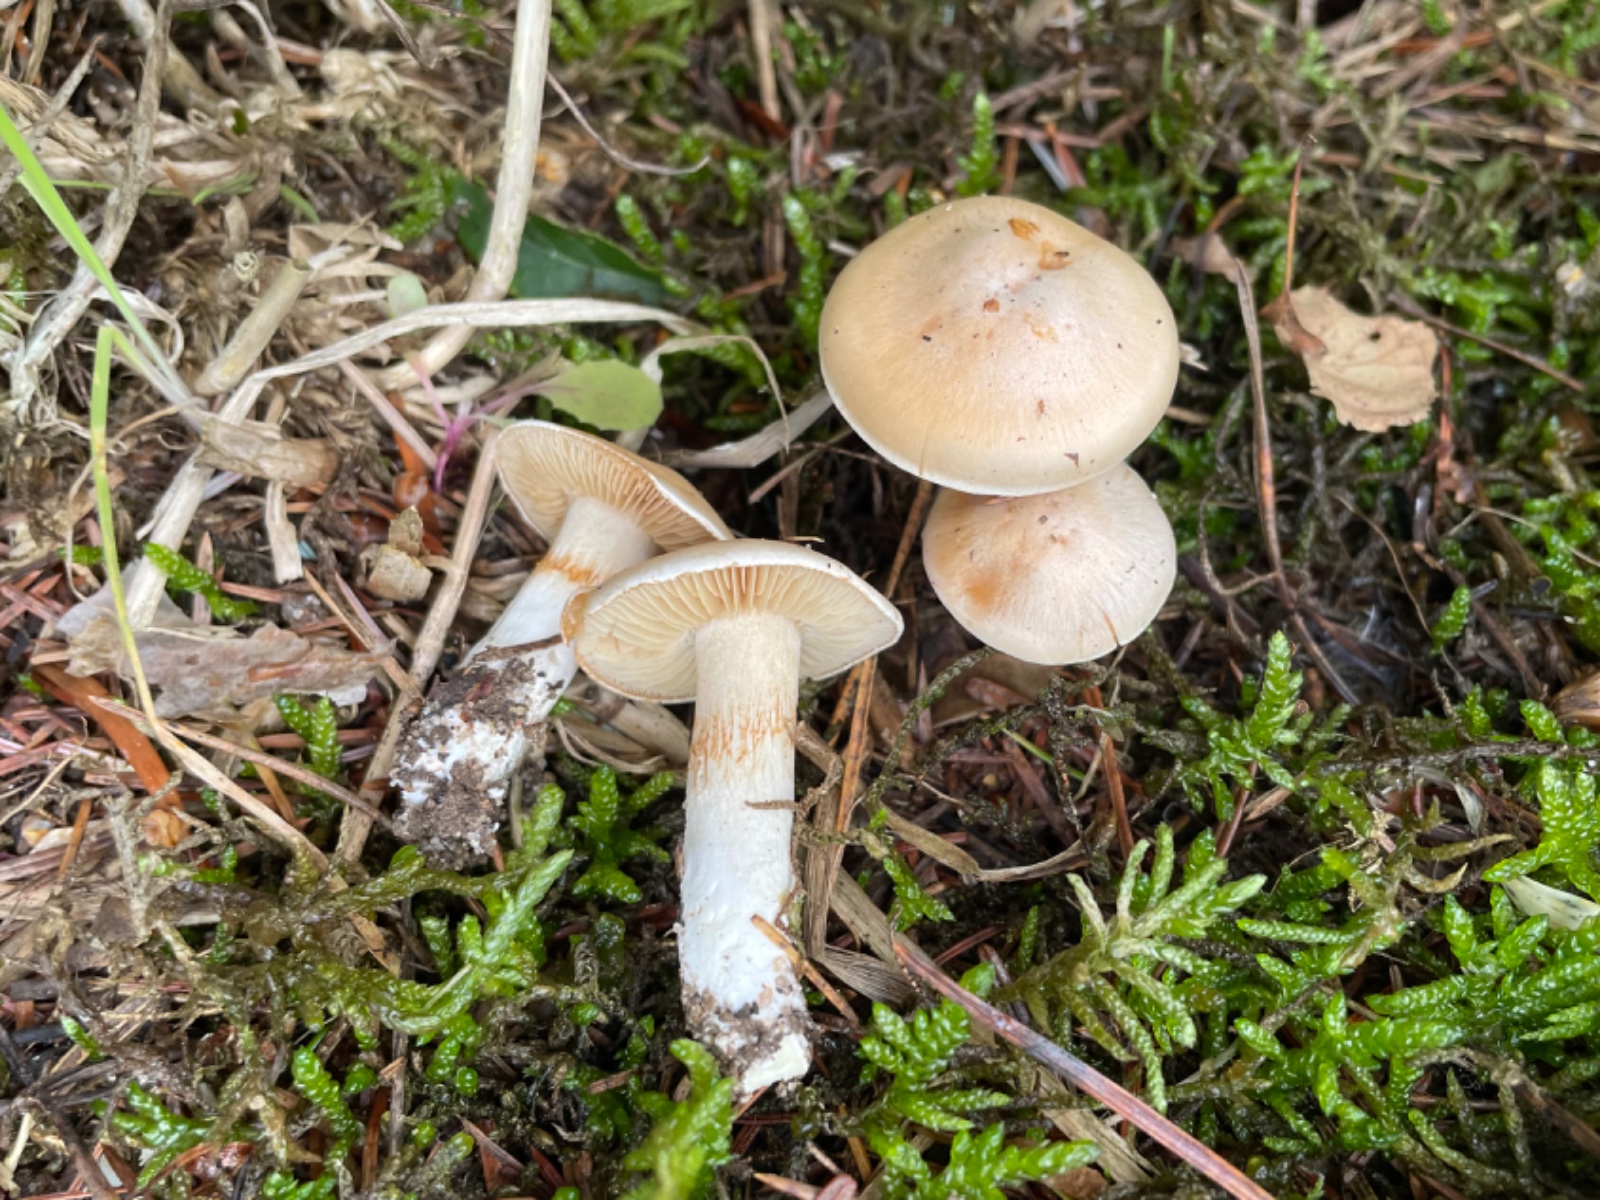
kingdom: Fungi
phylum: Basidiomycota
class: Agaricomycetes
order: Agaricales
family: Cortinariaceae
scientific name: Cortinariaceae
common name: slørhatfamilien
